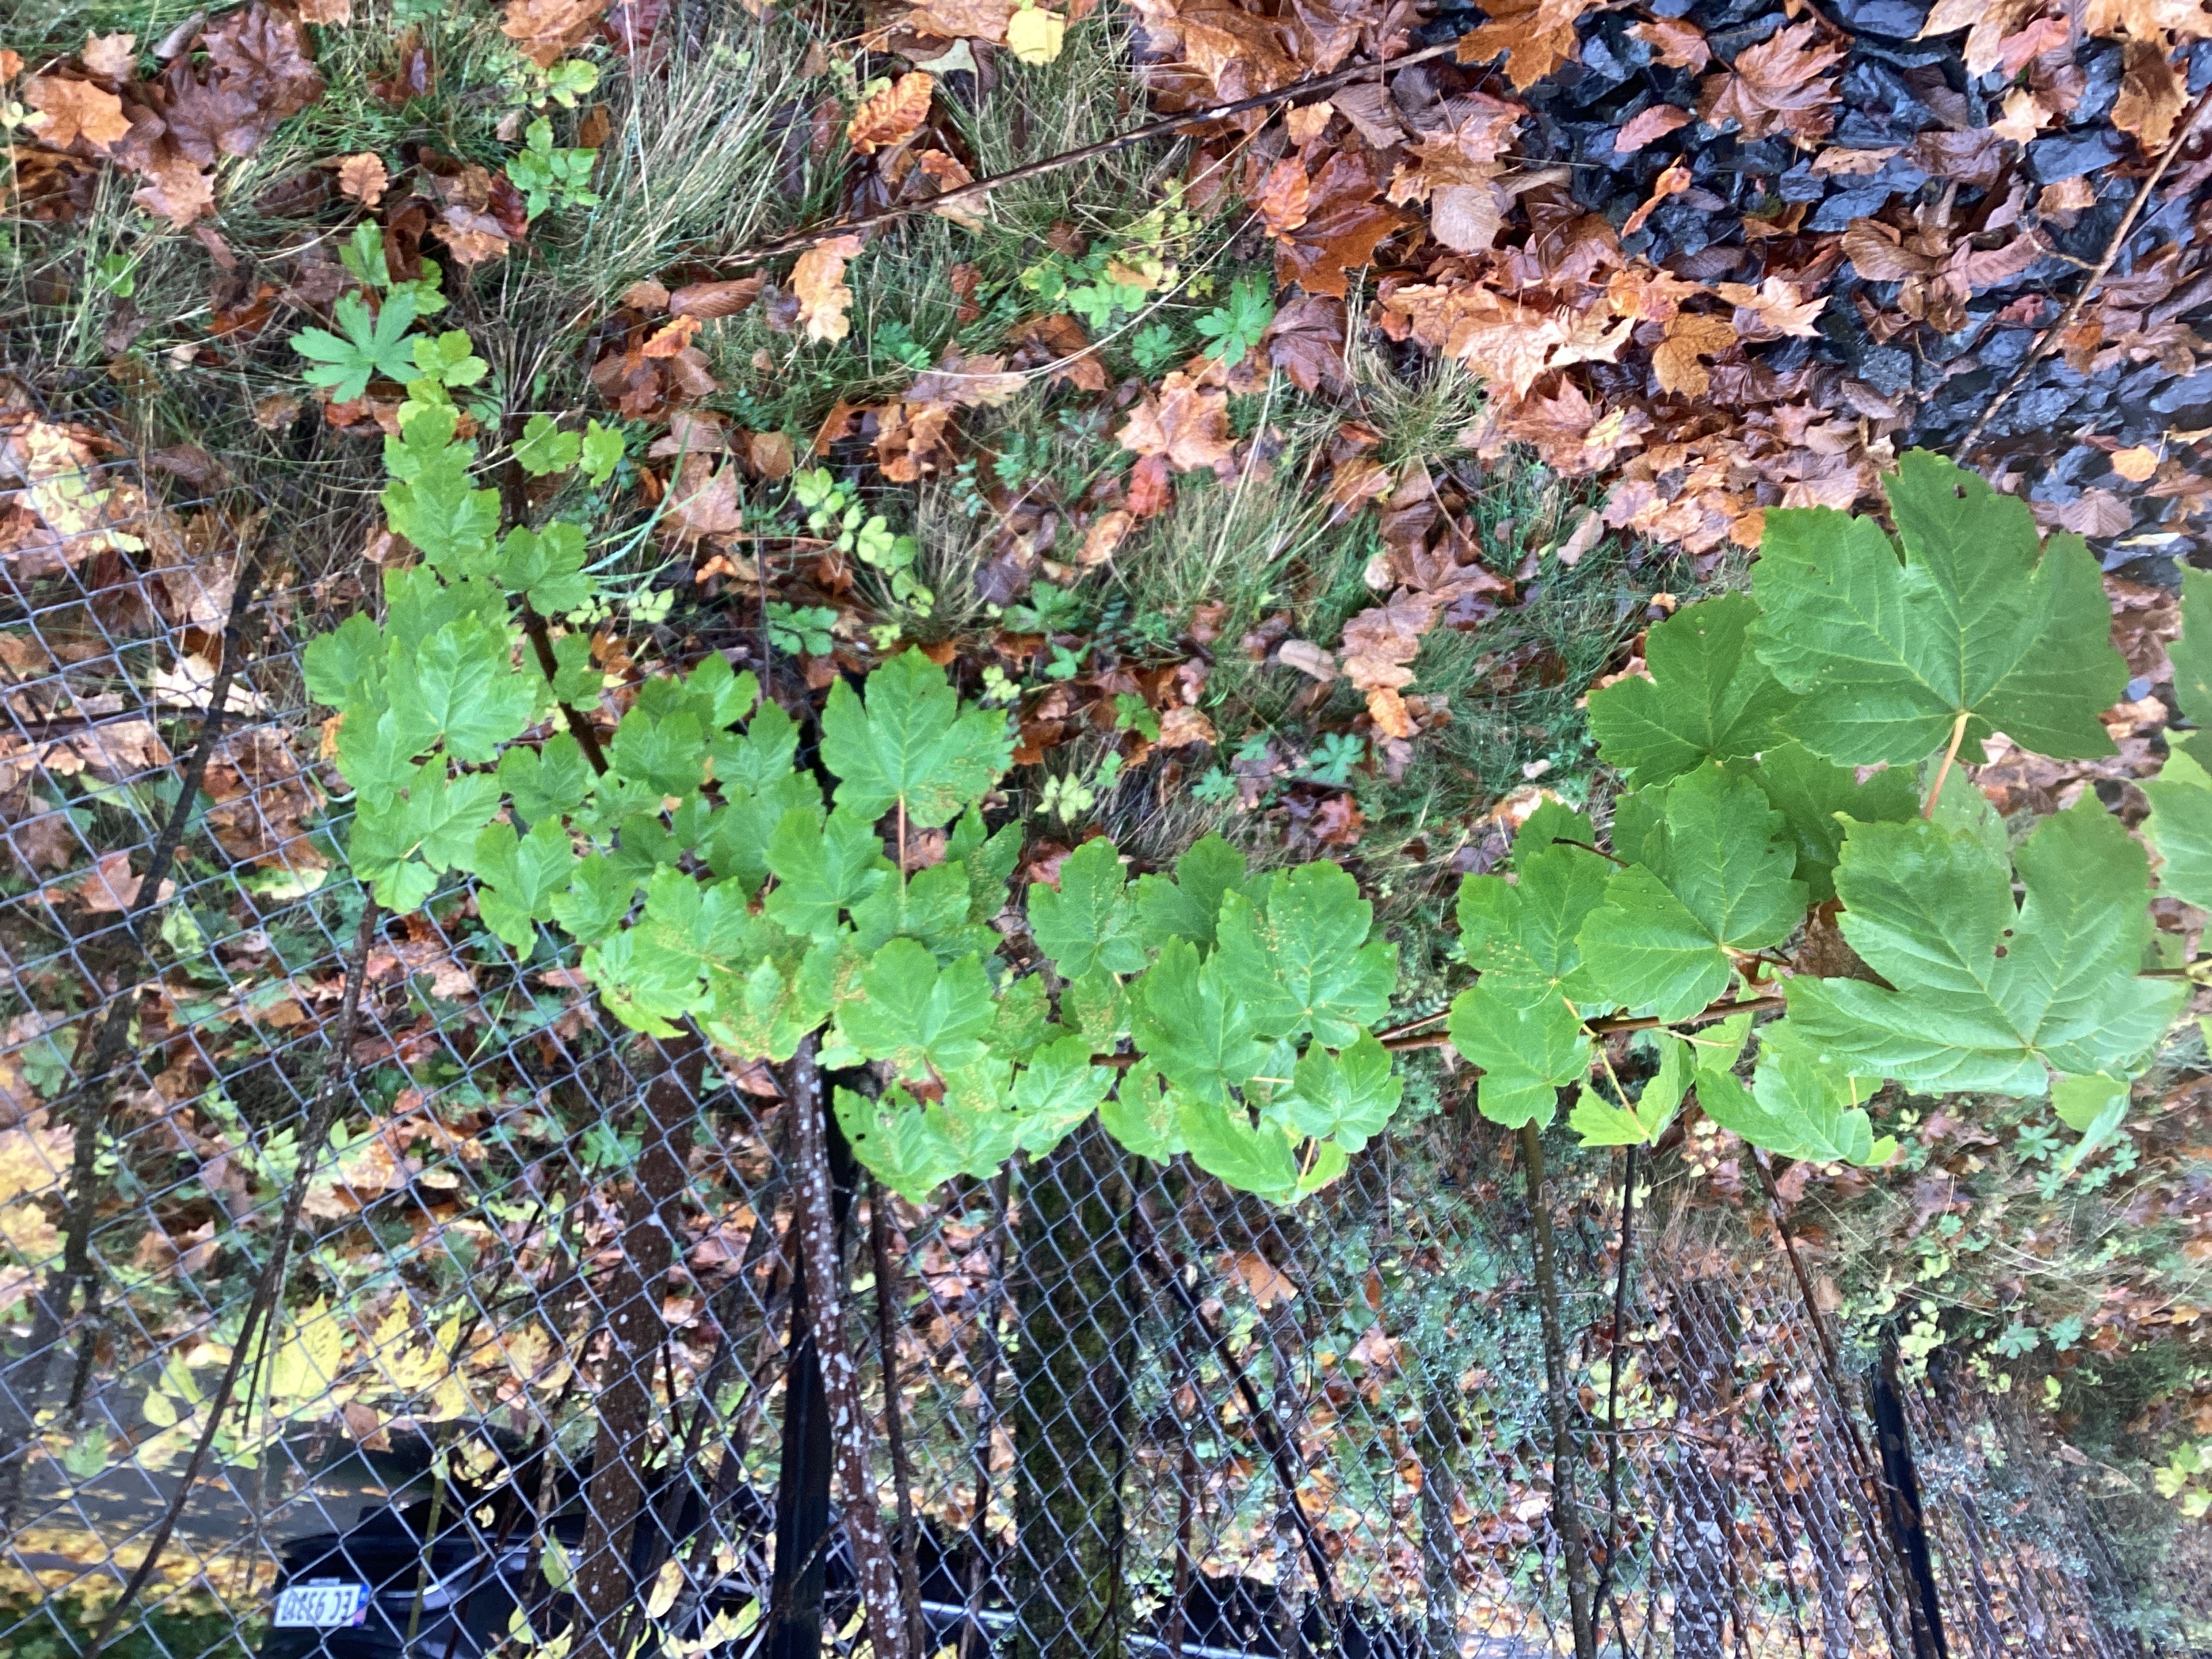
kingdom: Plantae
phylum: Tracheophyta
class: Magnoliopsida
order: Sapindales
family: Sapindaceae
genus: Acer
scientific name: Acer pseudoplatanus
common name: platanlønn
